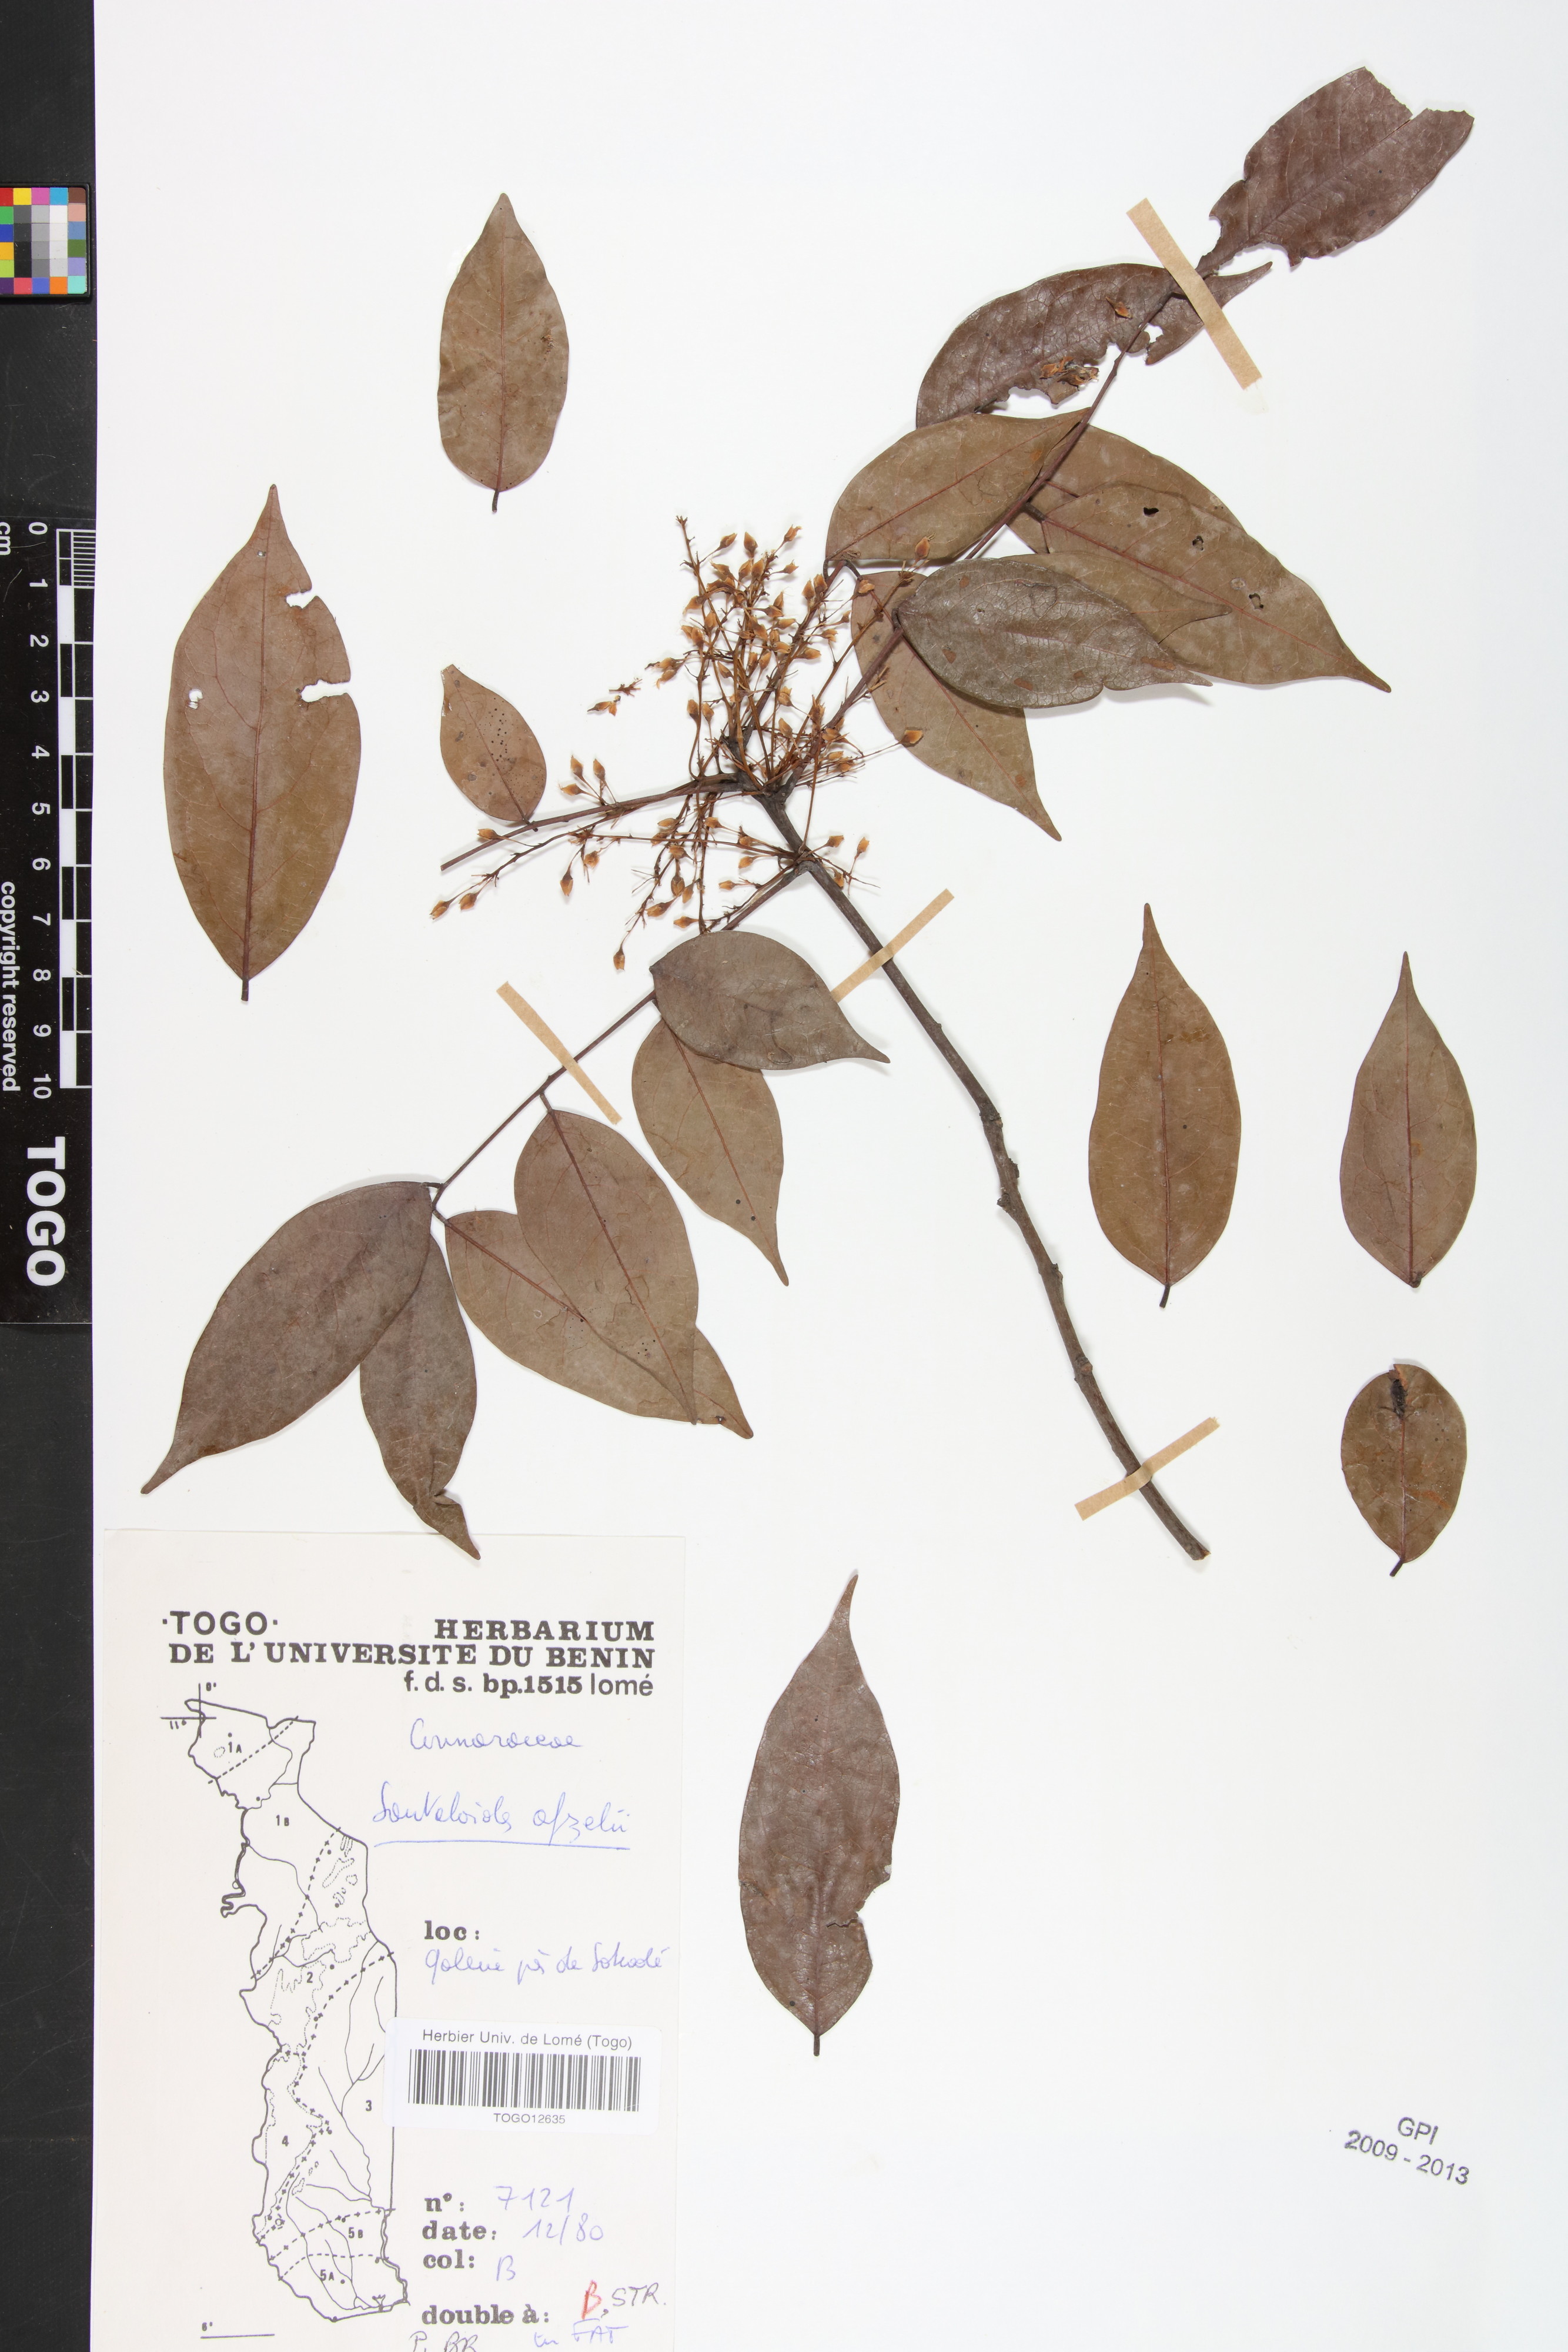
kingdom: Plantae
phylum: Tracheophyta
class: Magnoliopsida
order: Oxalidales
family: Connaraceae
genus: Rourea
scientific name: Rourea minor
